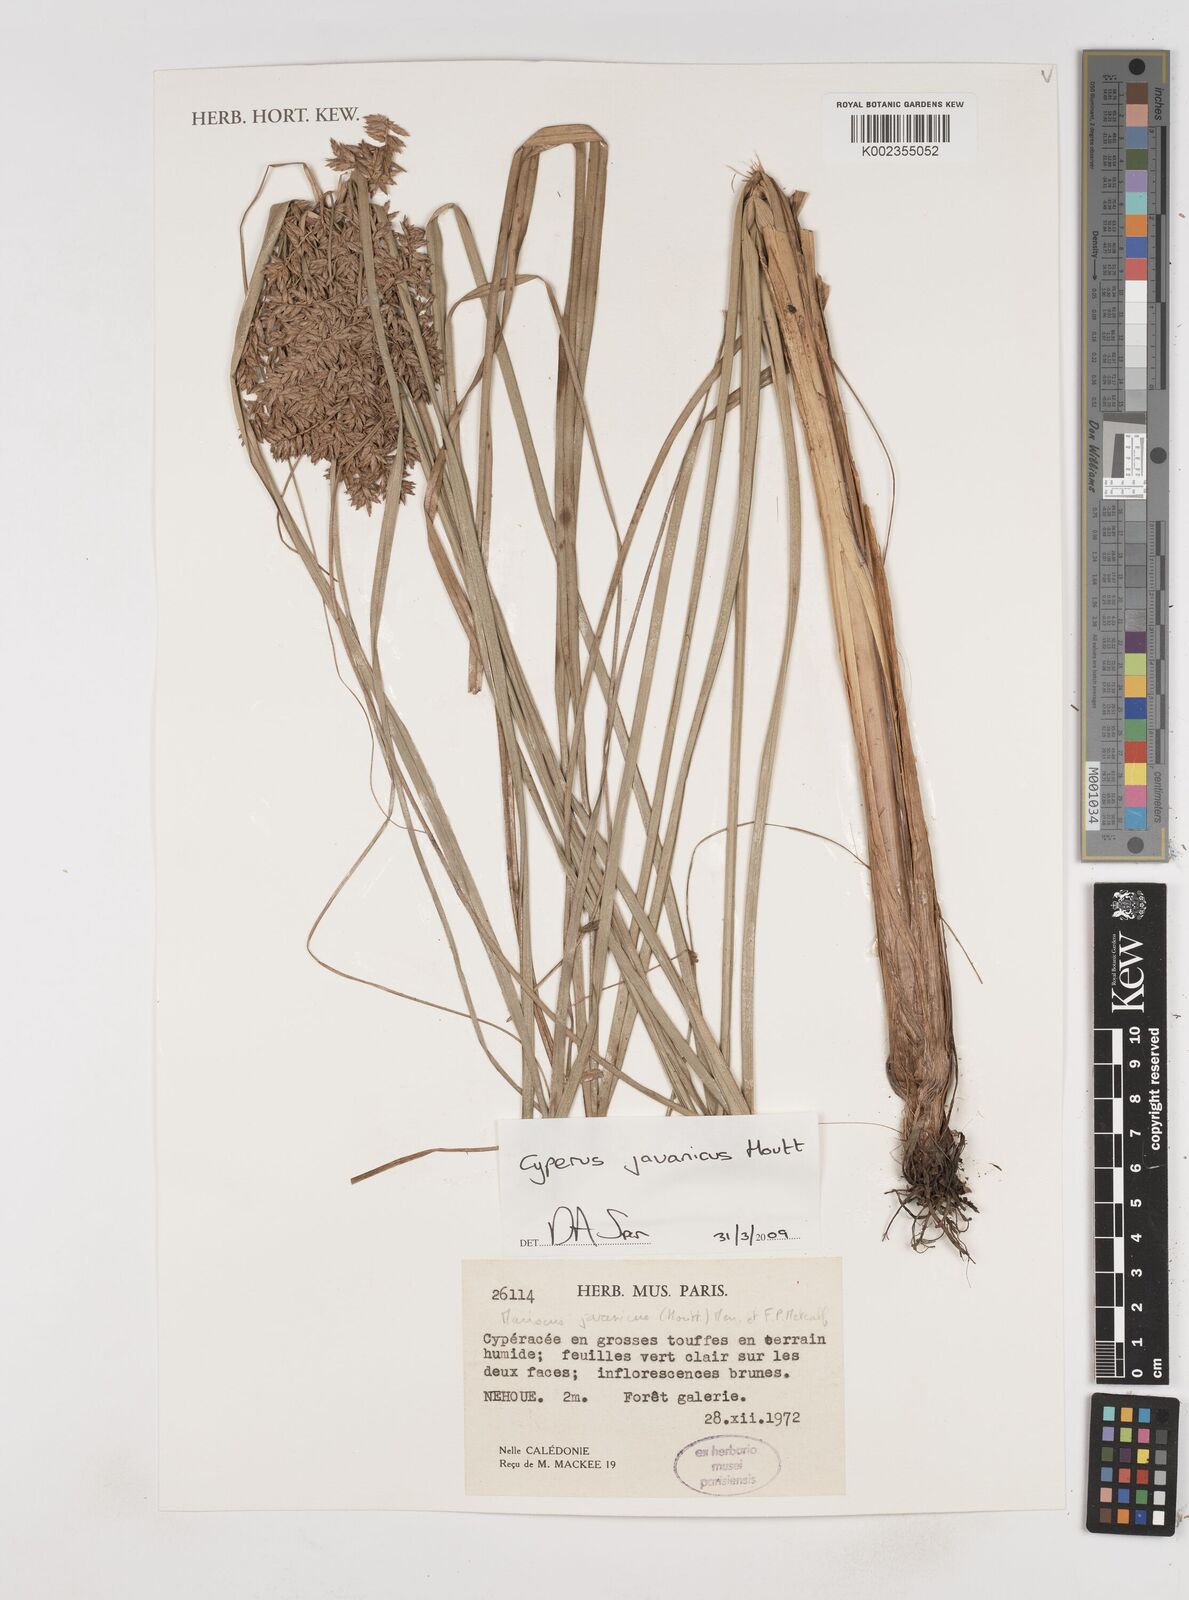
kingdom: Plantae
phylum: Tracheophyta
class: Liliopsida
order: Poales
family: Cyperaceae
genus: Cyperus
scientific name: Cyperus javanicus
